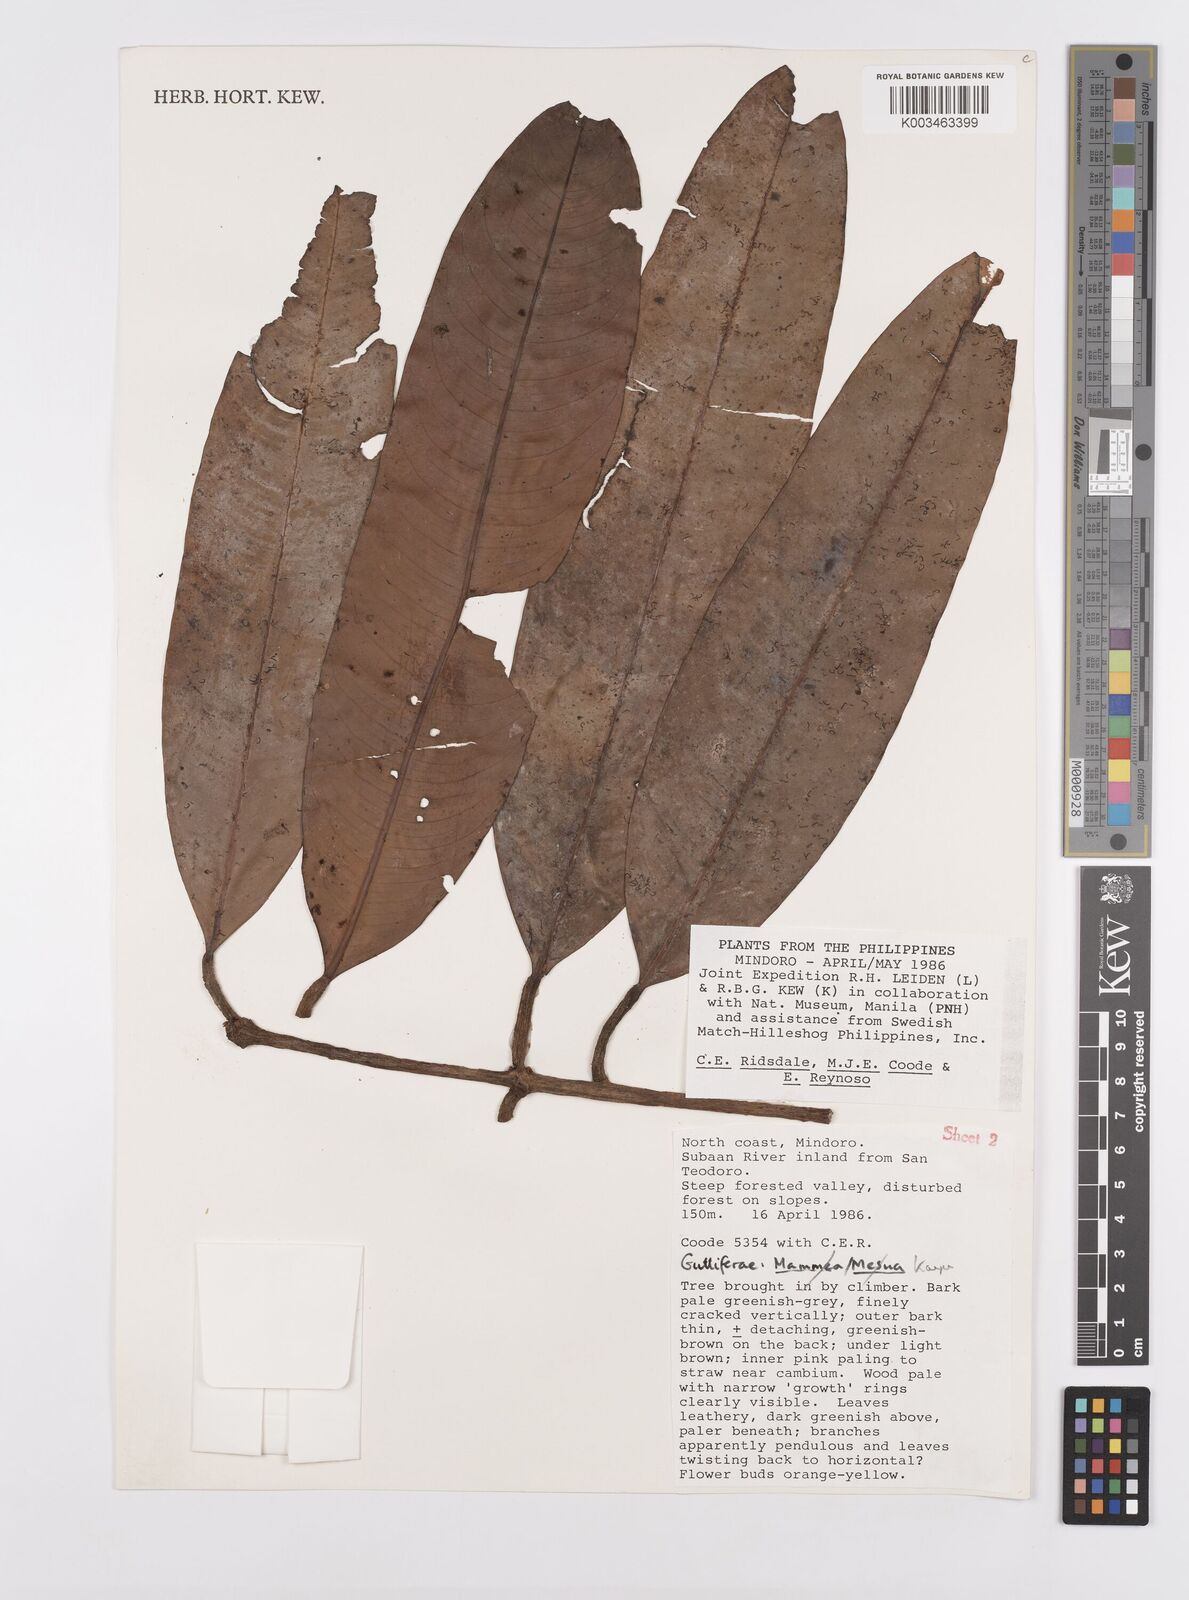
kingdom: Plantae
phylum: Tracheophyta
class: Magnoliopsida
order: Malpighiales
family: Calophyllaceae
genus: Kayea
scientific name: Kayea navesii
